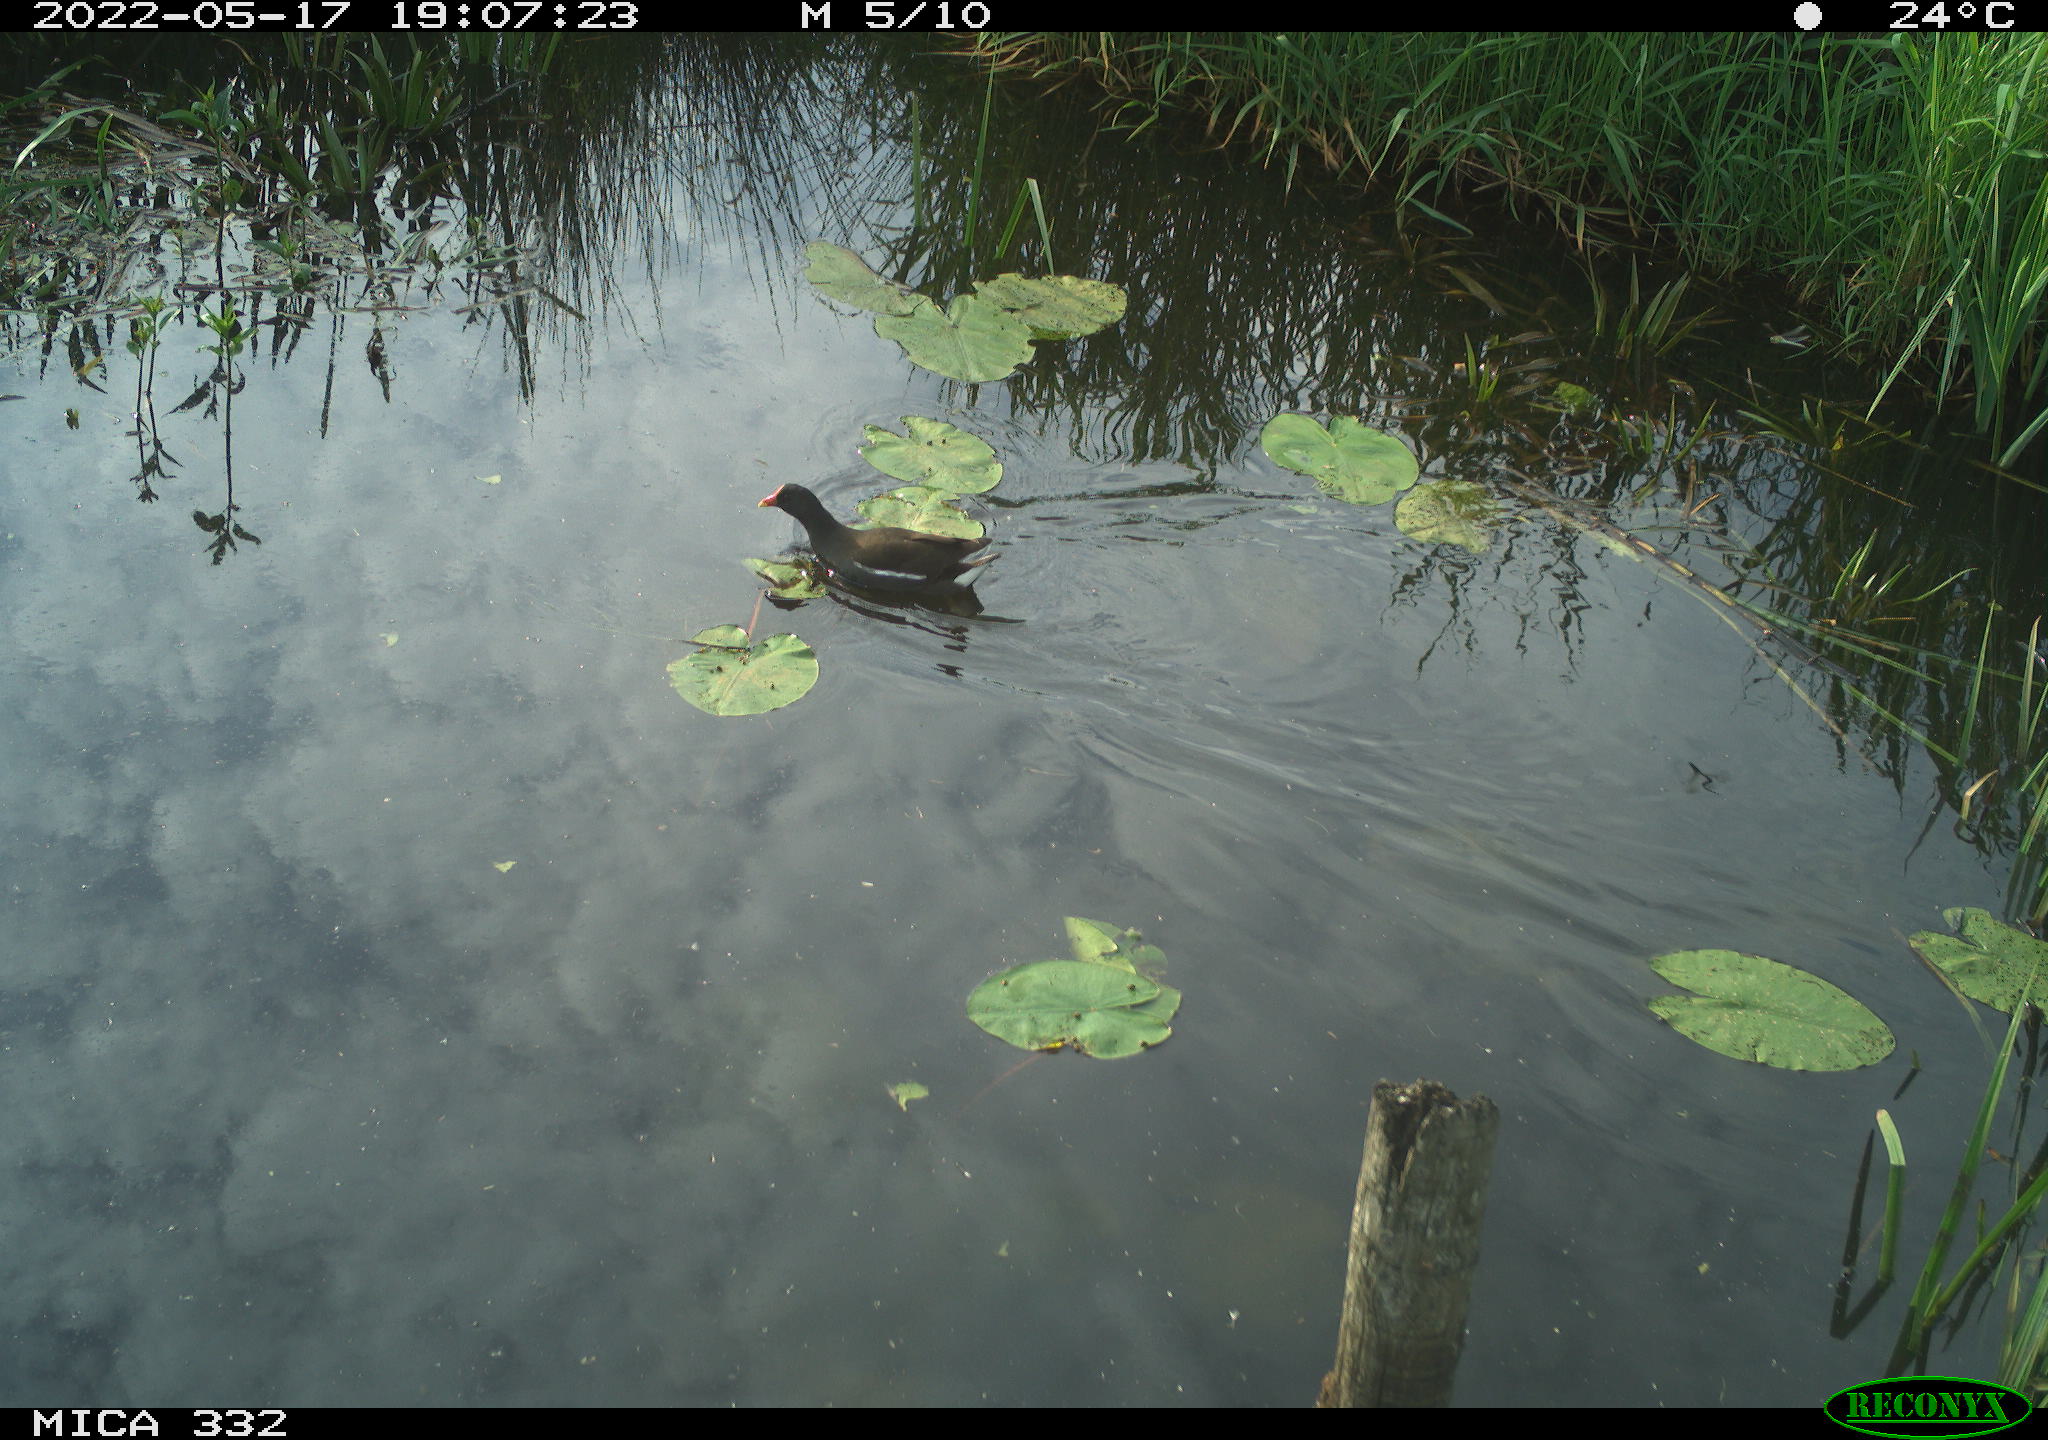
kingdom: Animalia
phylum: Chordata
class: Aves
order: Gruiformes
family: Rallidae
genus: Gallinula
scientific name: Gallinula chloropus
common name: Common moorhen
